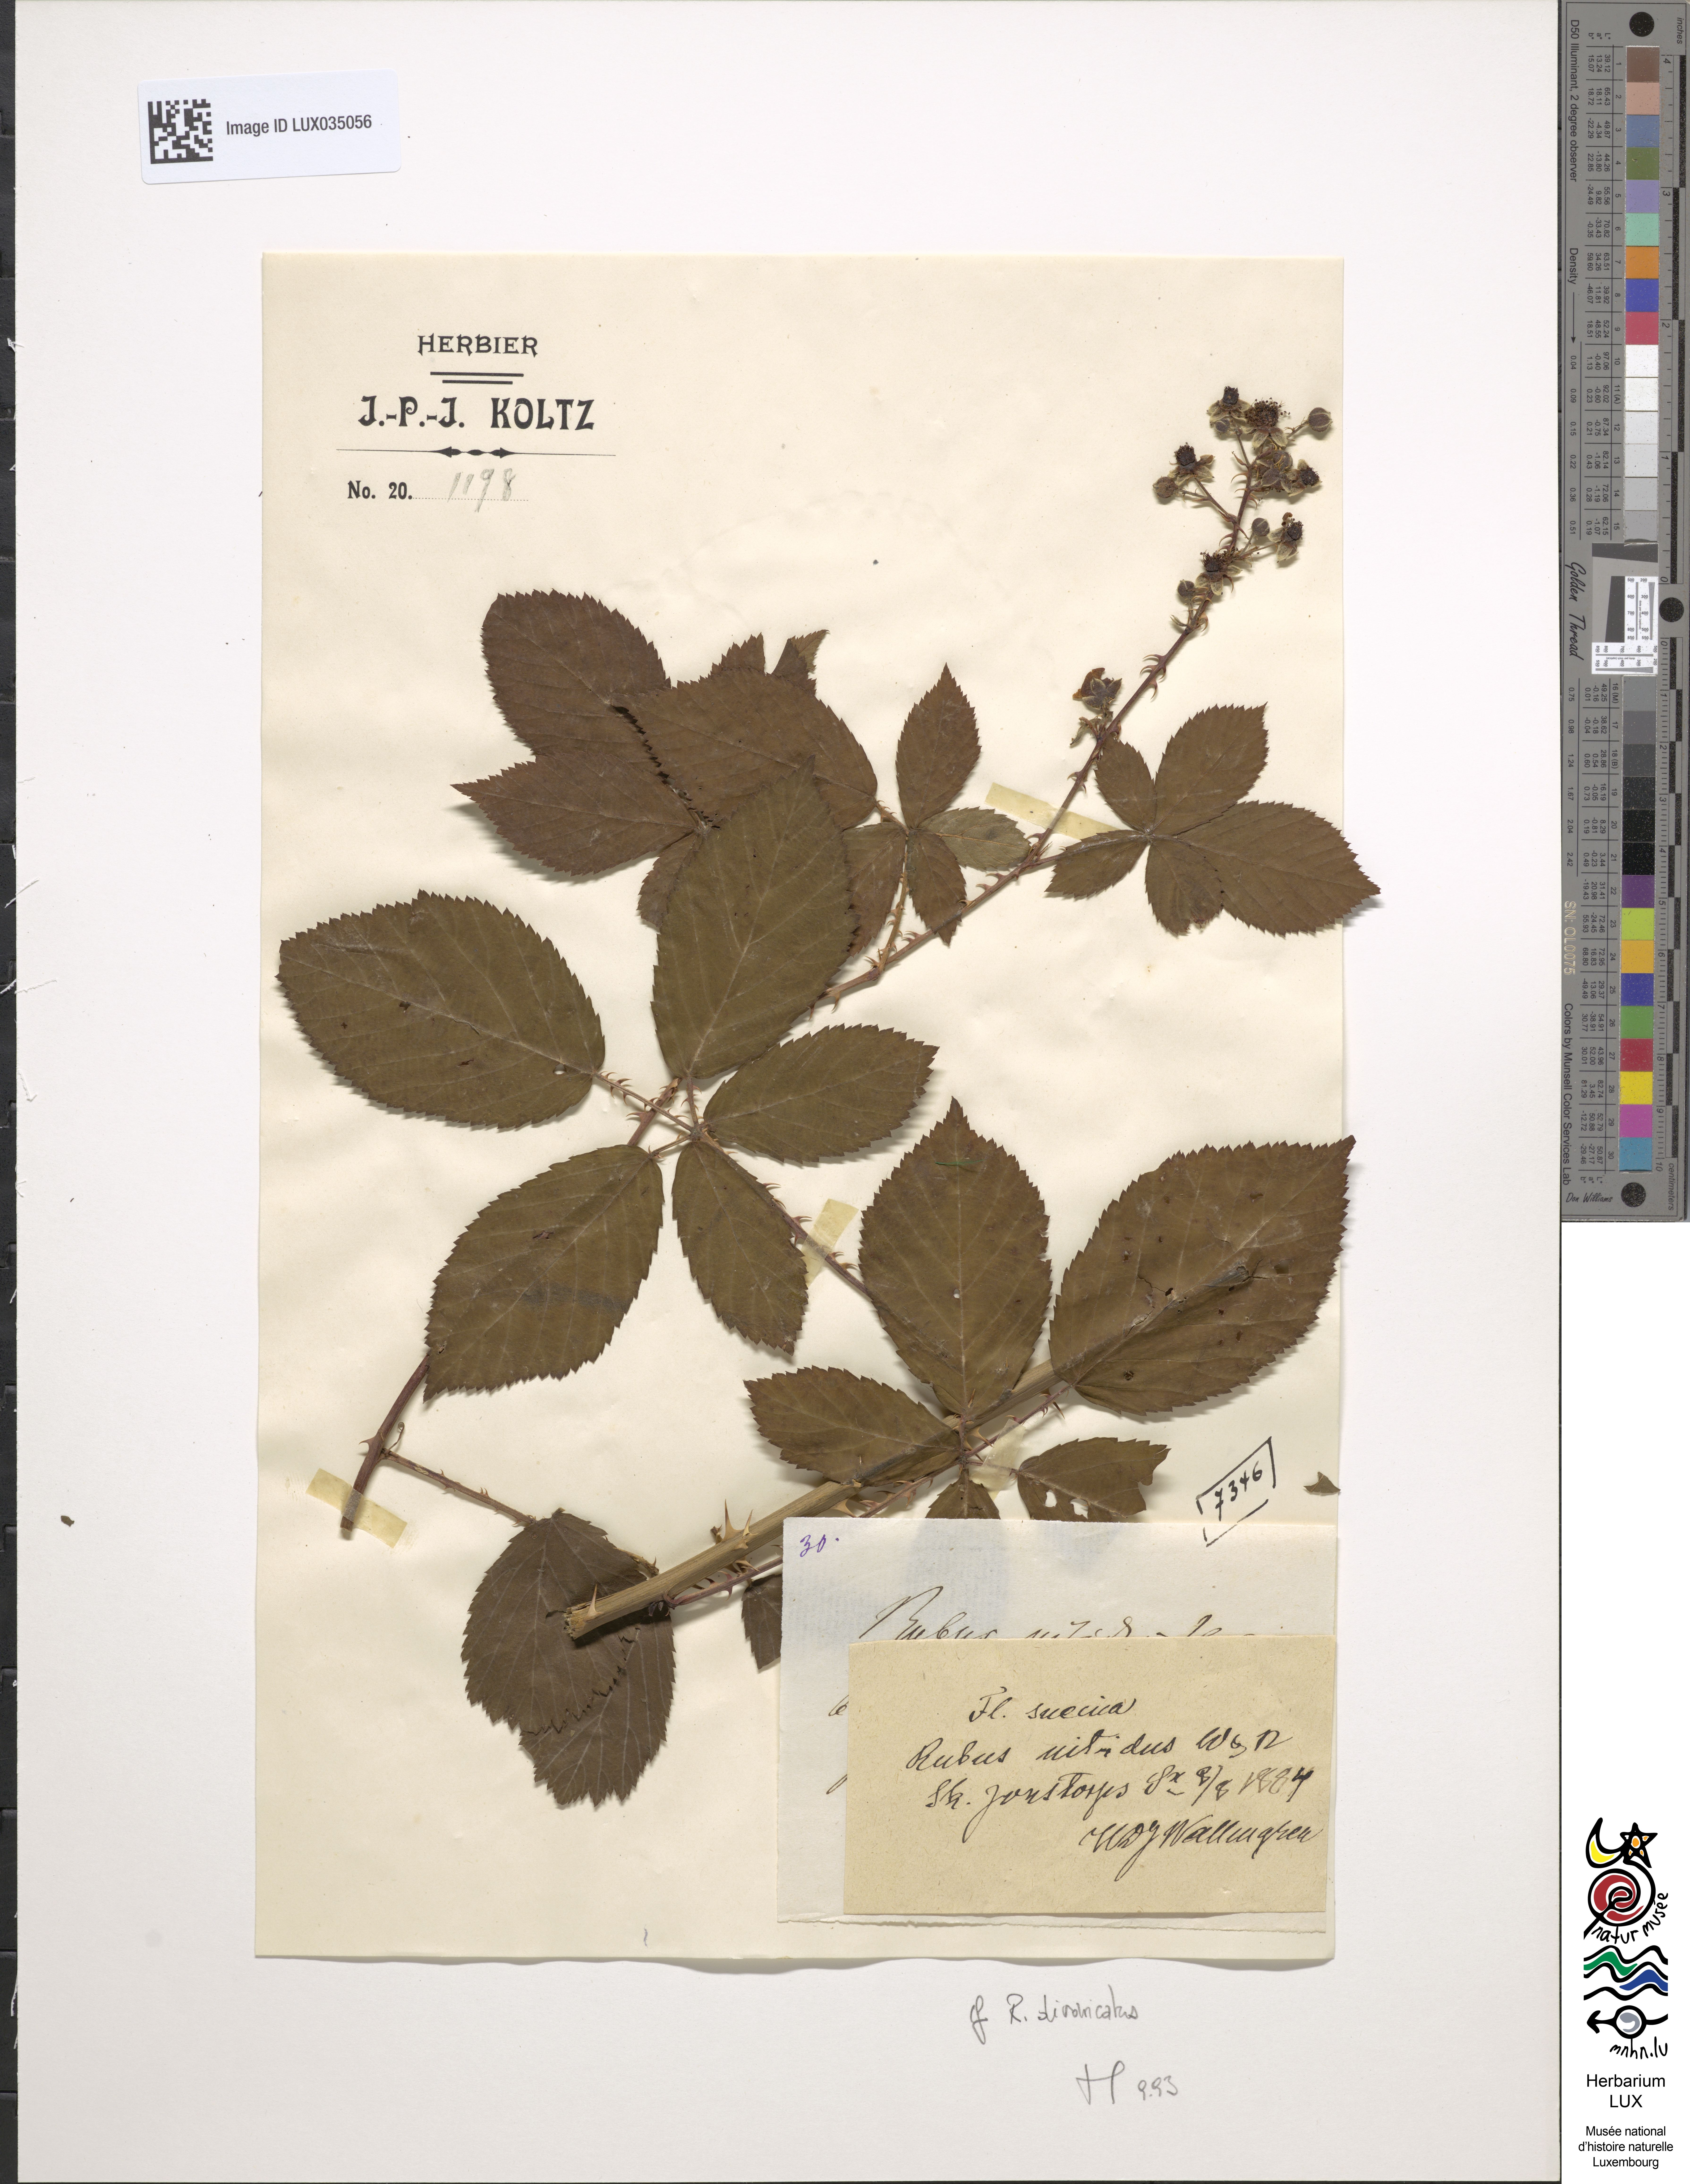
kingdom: Plantae
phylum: Tracheophyta
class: Magnoliopsida
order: Rosales
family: Rosaceae
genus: Rubus
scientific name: Rubus divaricatus
